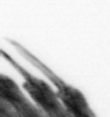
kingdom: Animalia
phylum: Annelida
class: Polychaeta
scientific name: Polychaeta
